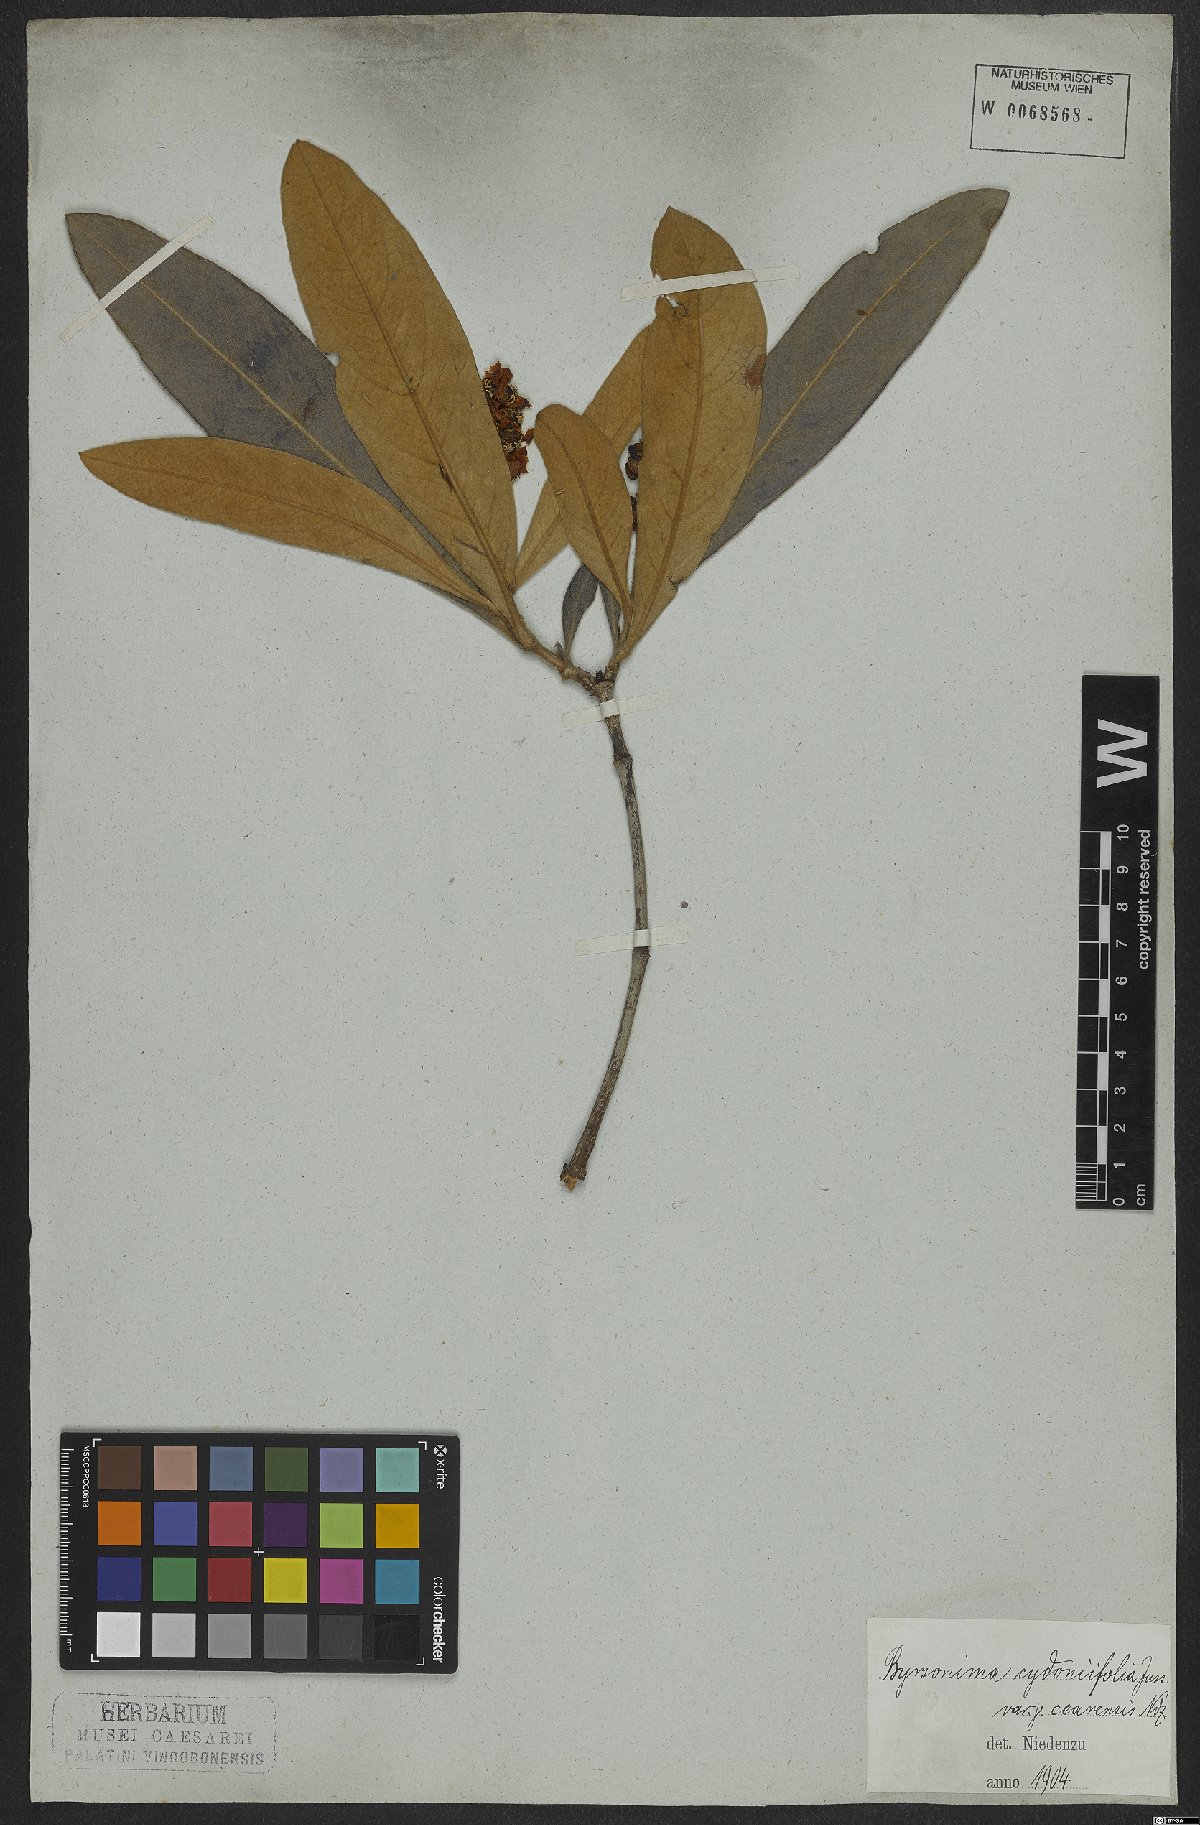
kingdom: Plantae
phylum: Tracheophyta
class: Magnoliopsida
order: Malpighiales
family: Malpighiaceae
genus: Byrsonima
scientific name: Byrsonima cydoniifolia
